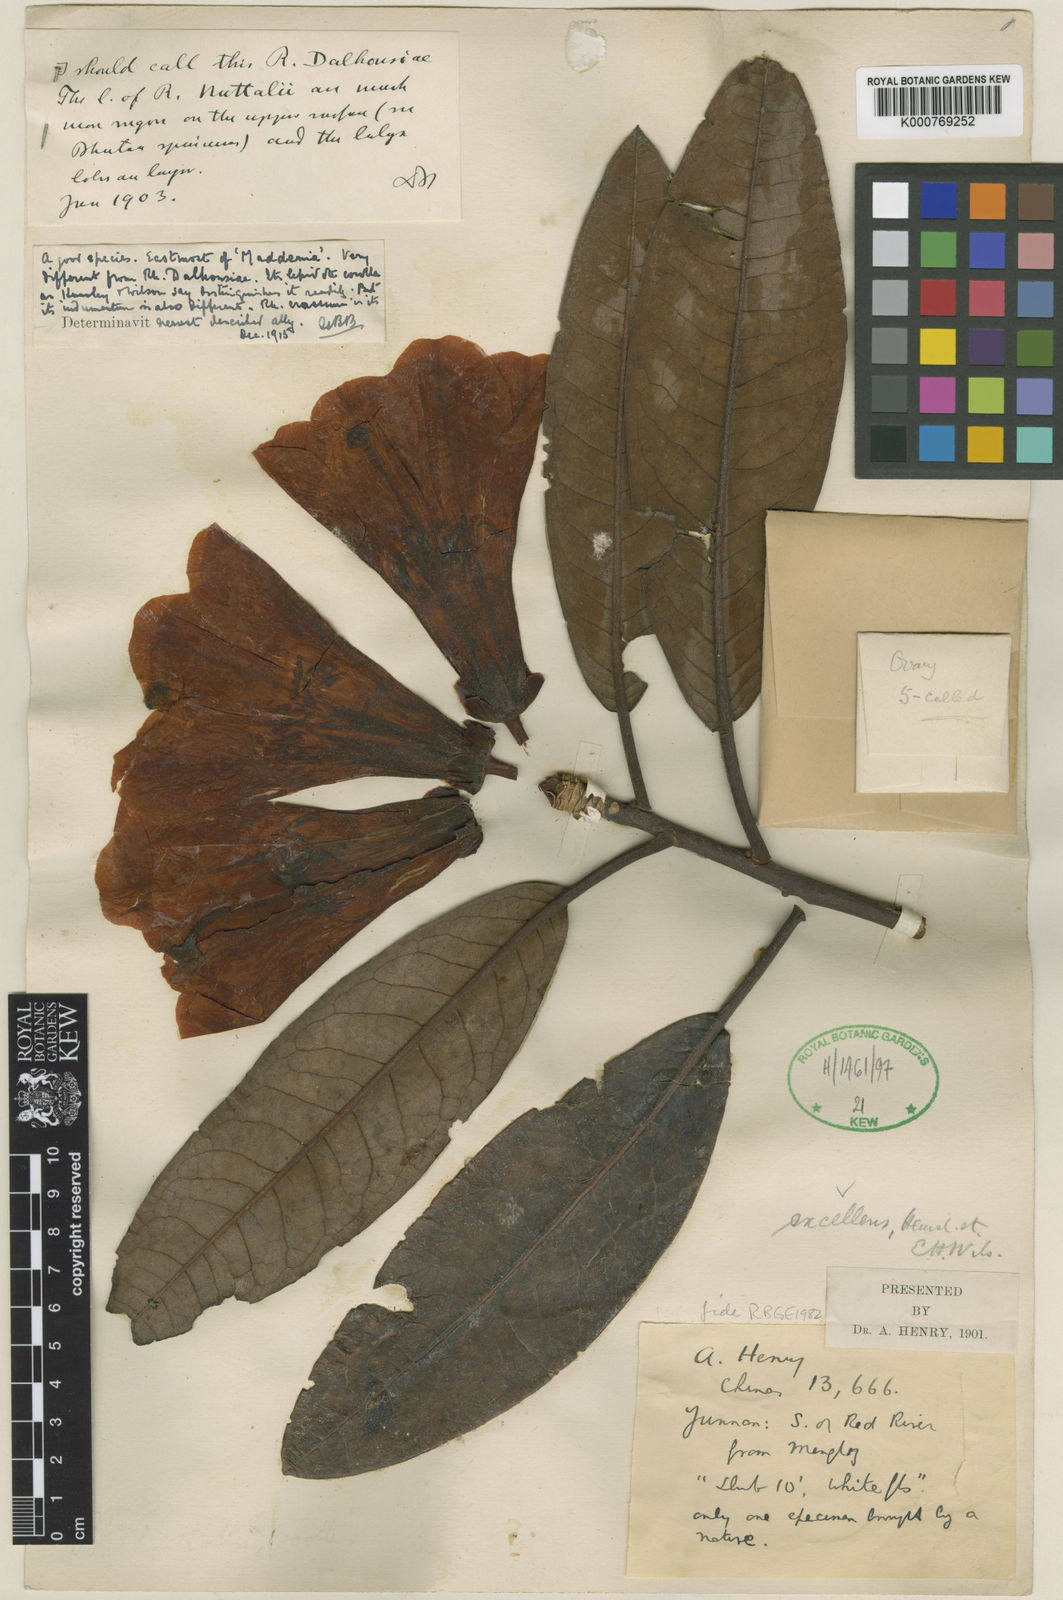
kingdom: Plantae
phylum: Tracheophyta
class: Magnoliopsida
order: Ericales
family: Ericaceae
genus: Rhododendron
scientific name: Rhododendron excellens
